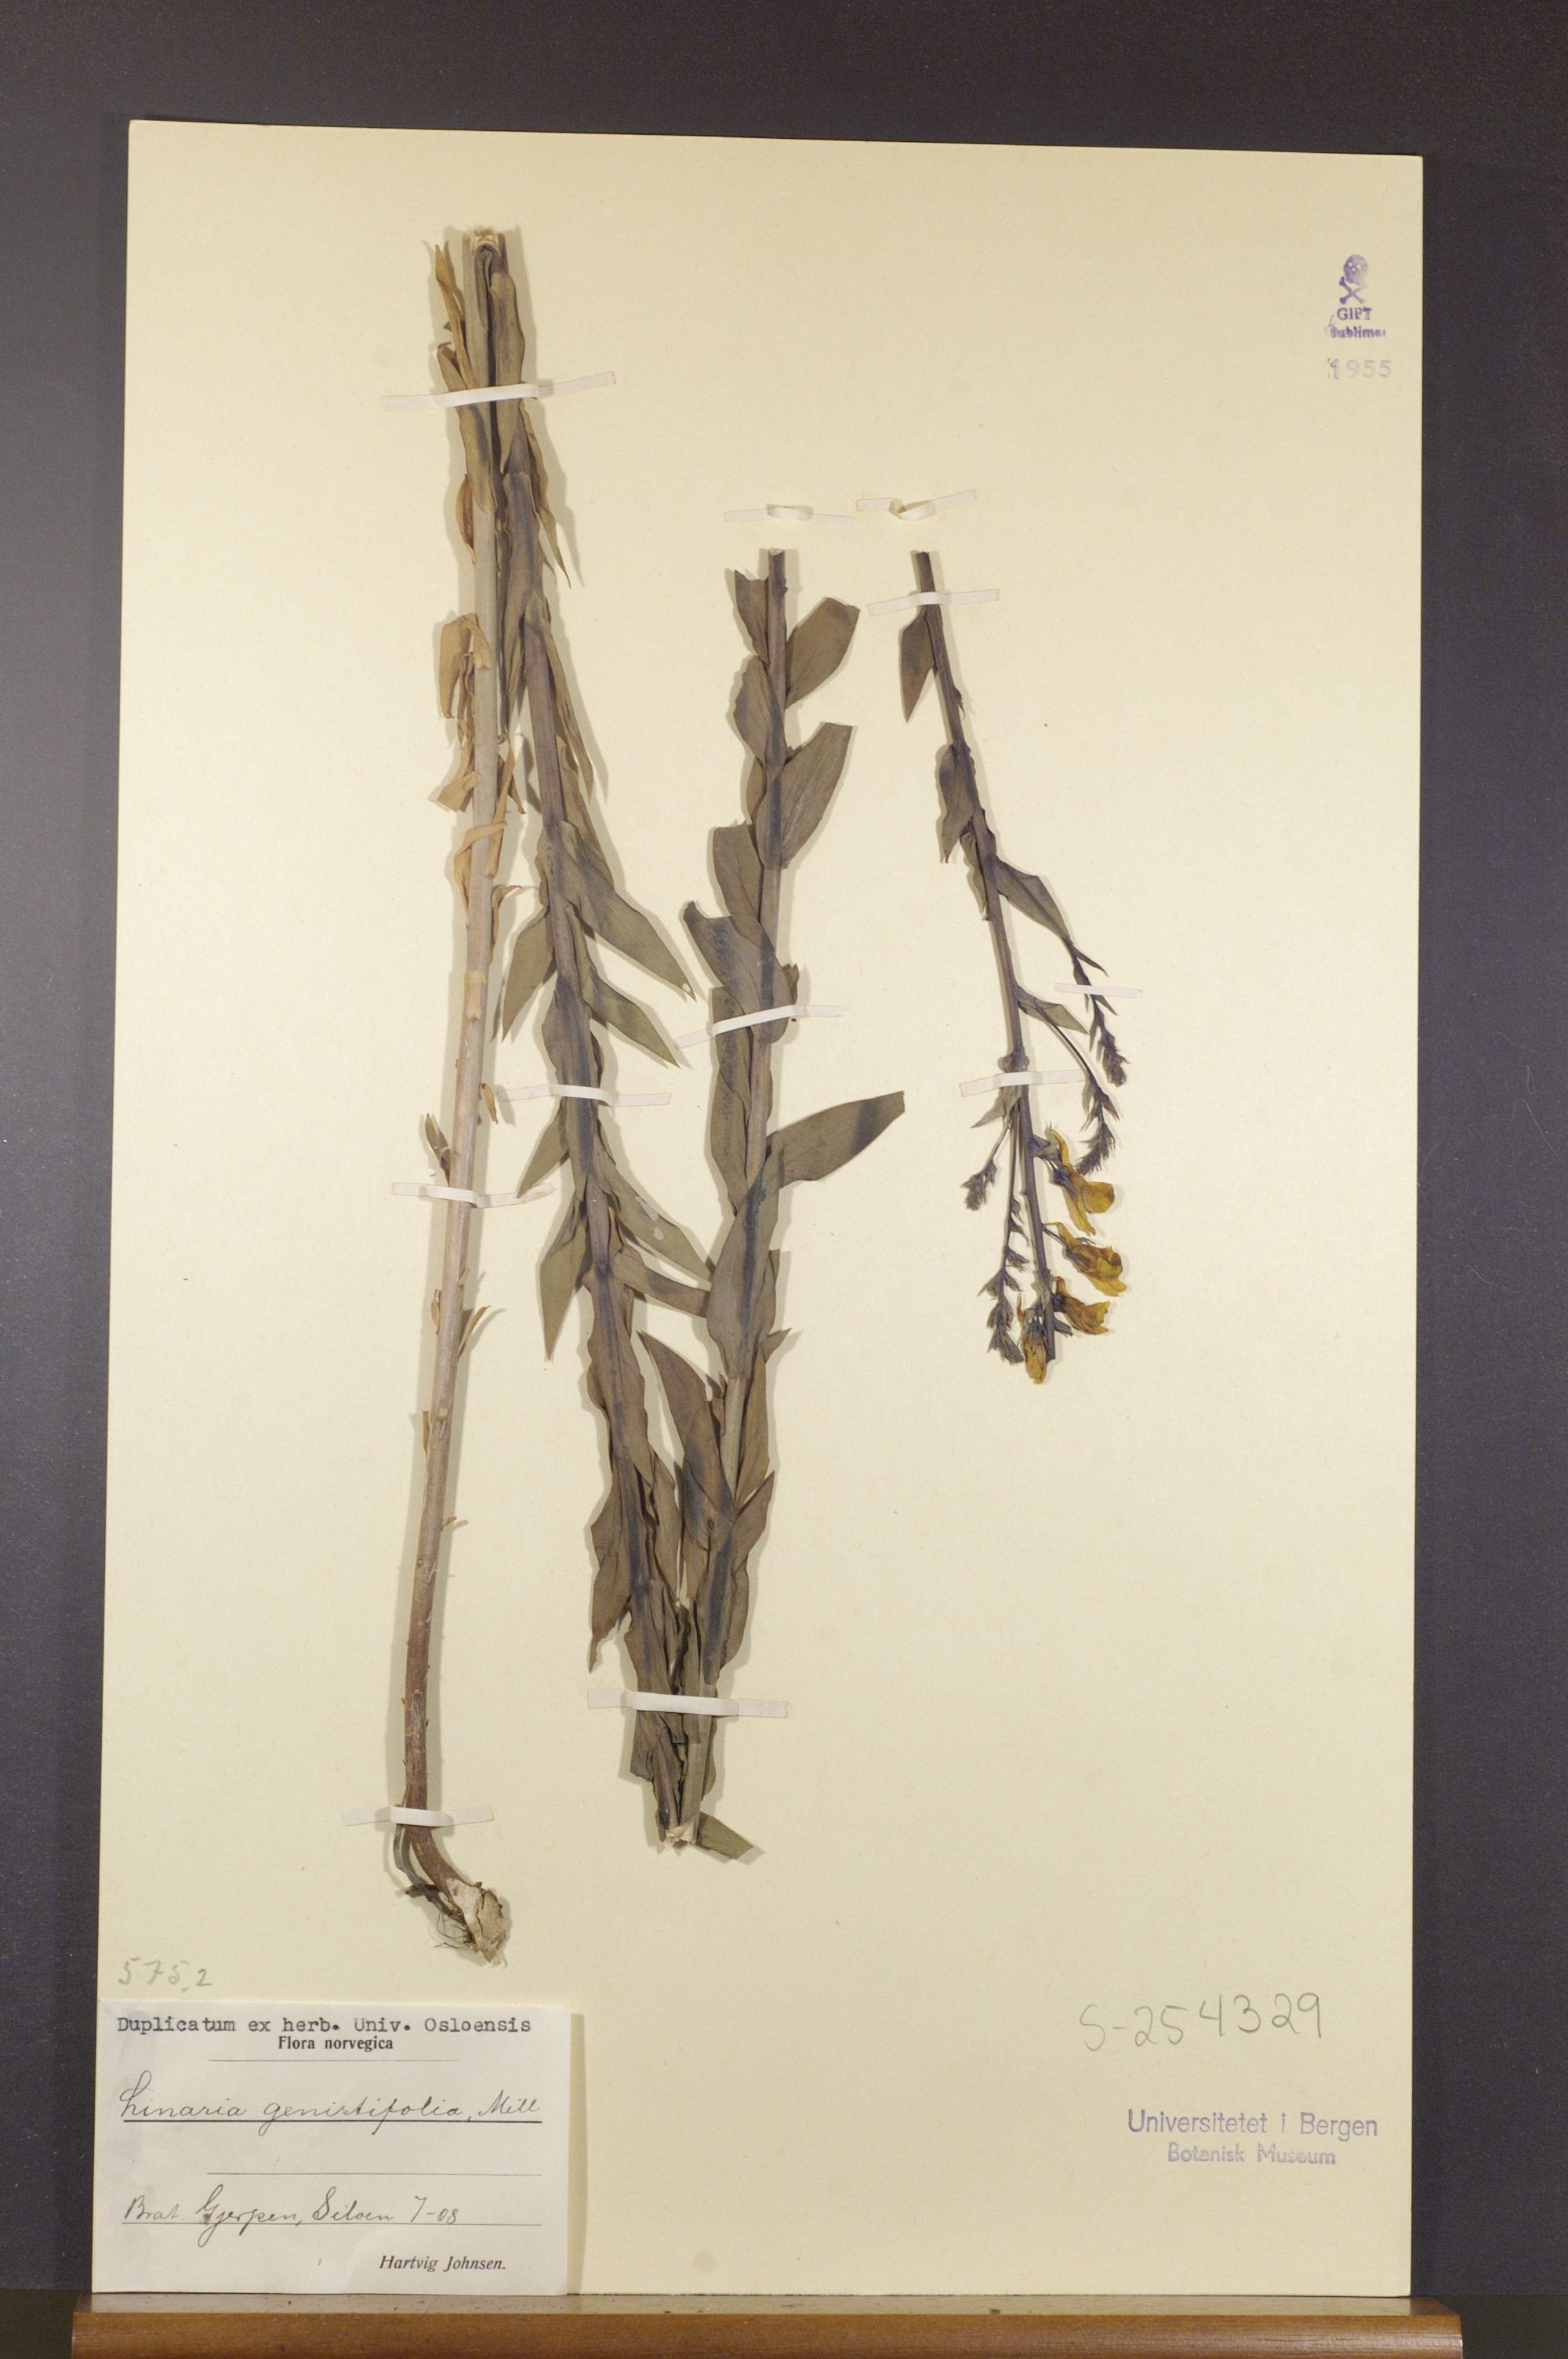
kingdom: Plantae
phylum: Tracheophyta
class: Magnoliopsida
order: Lamiales
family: Plantaginaceae
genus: Linaria
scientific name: Linaria genistifolia
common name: Broomleaf toadflax
